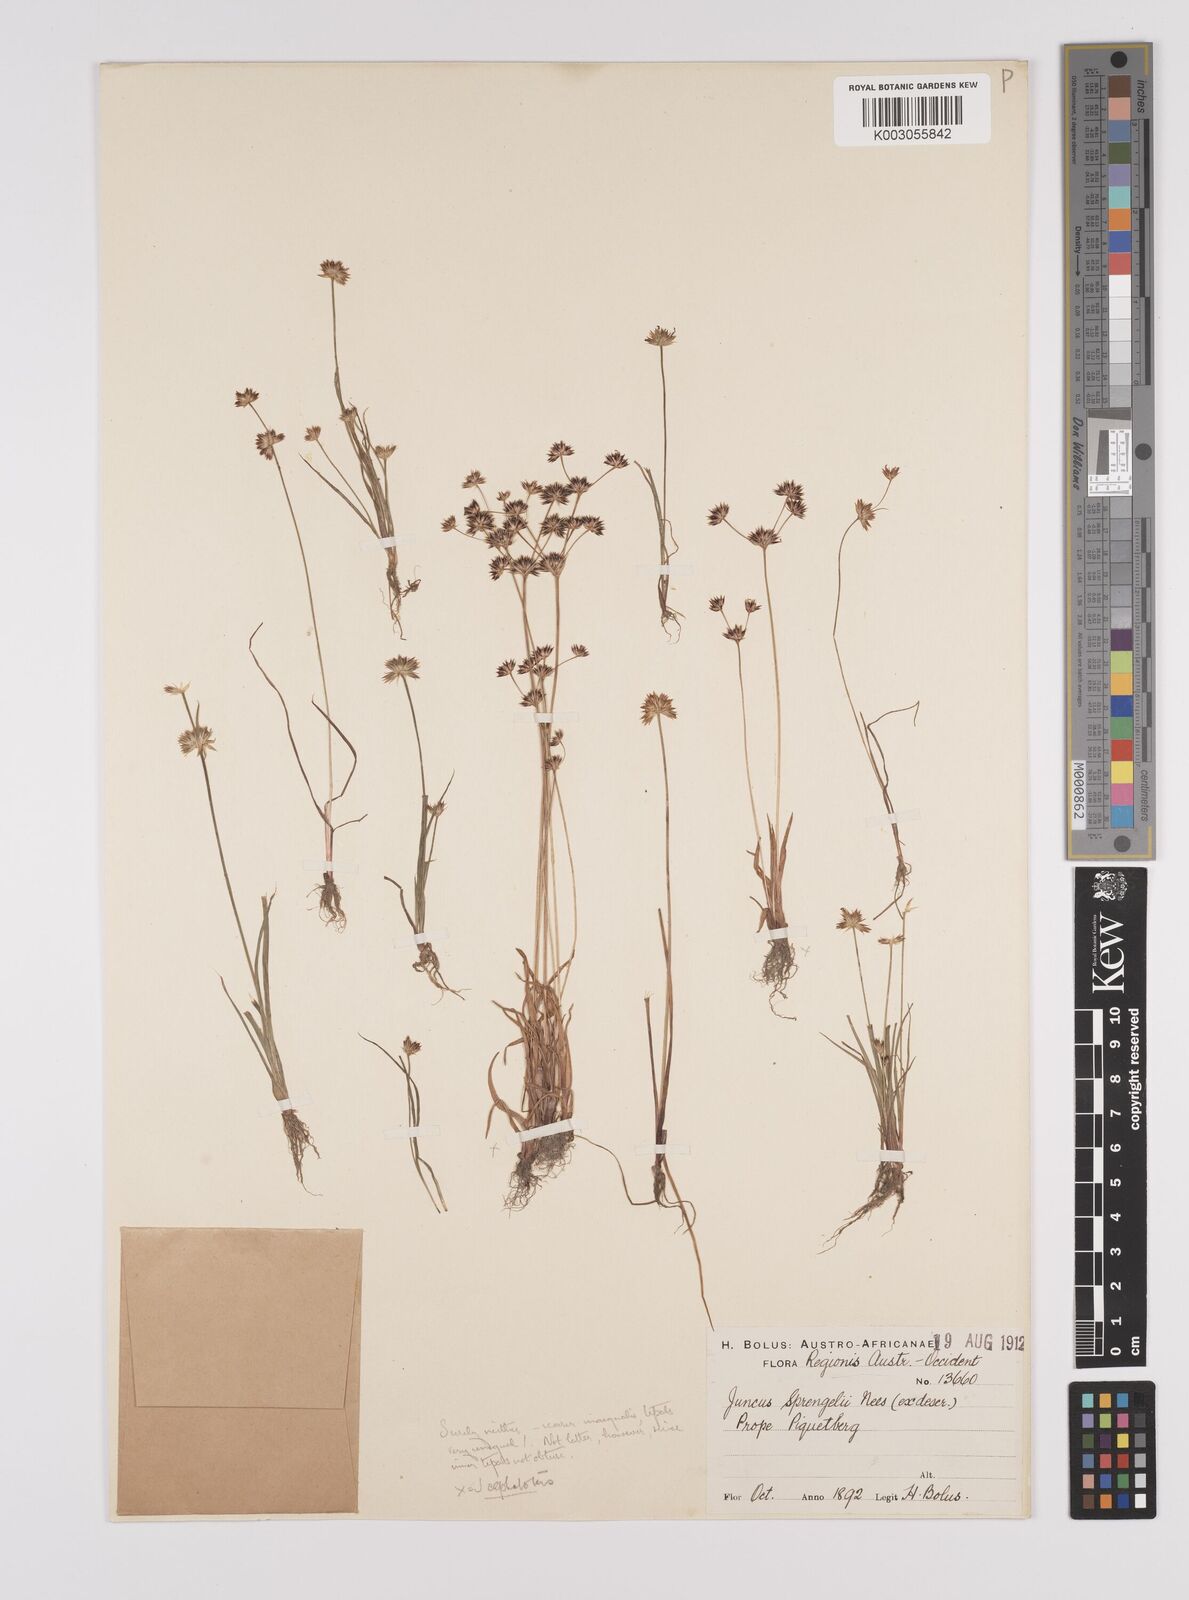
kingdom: Plantae
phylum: Tracheophyta
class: Liliopsida
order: Poales
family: Juncaceae
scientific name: Juncaceae
